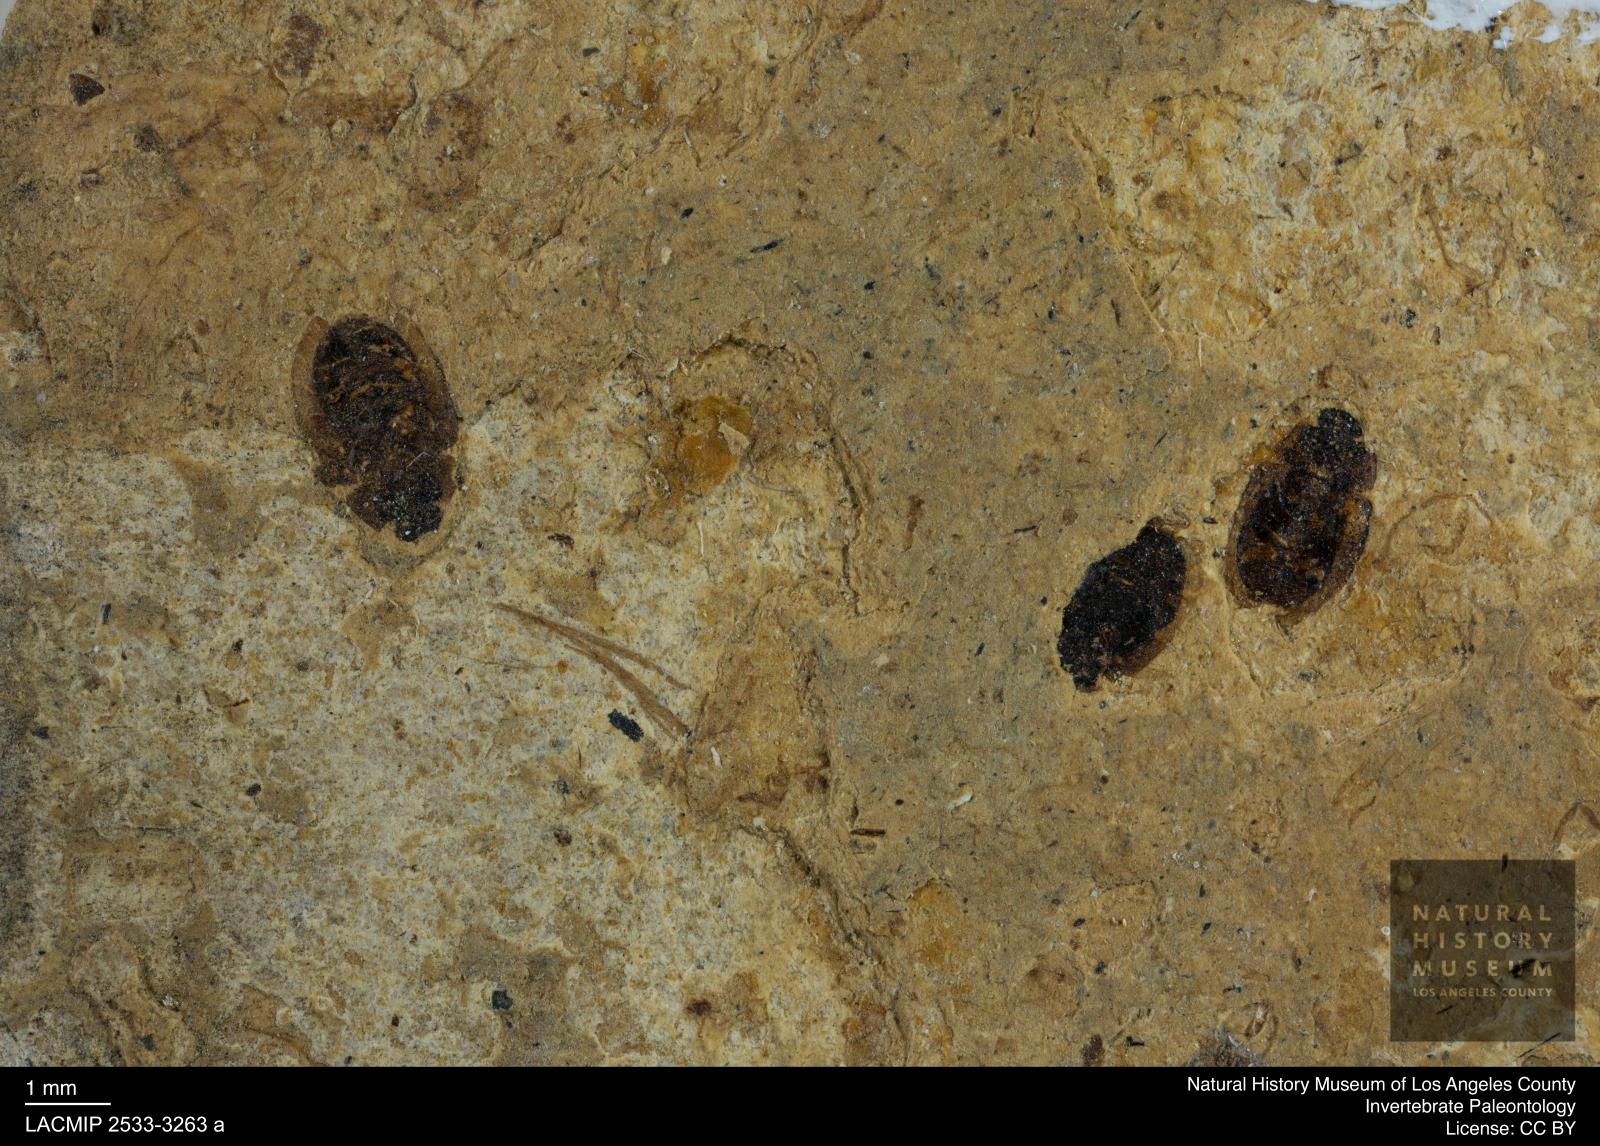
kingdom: Animalia
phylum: Arthropoda
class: Insecta
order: Coleoptera
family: Hydrophilidae
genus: Paracymus
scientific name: Paracymus excitatus
